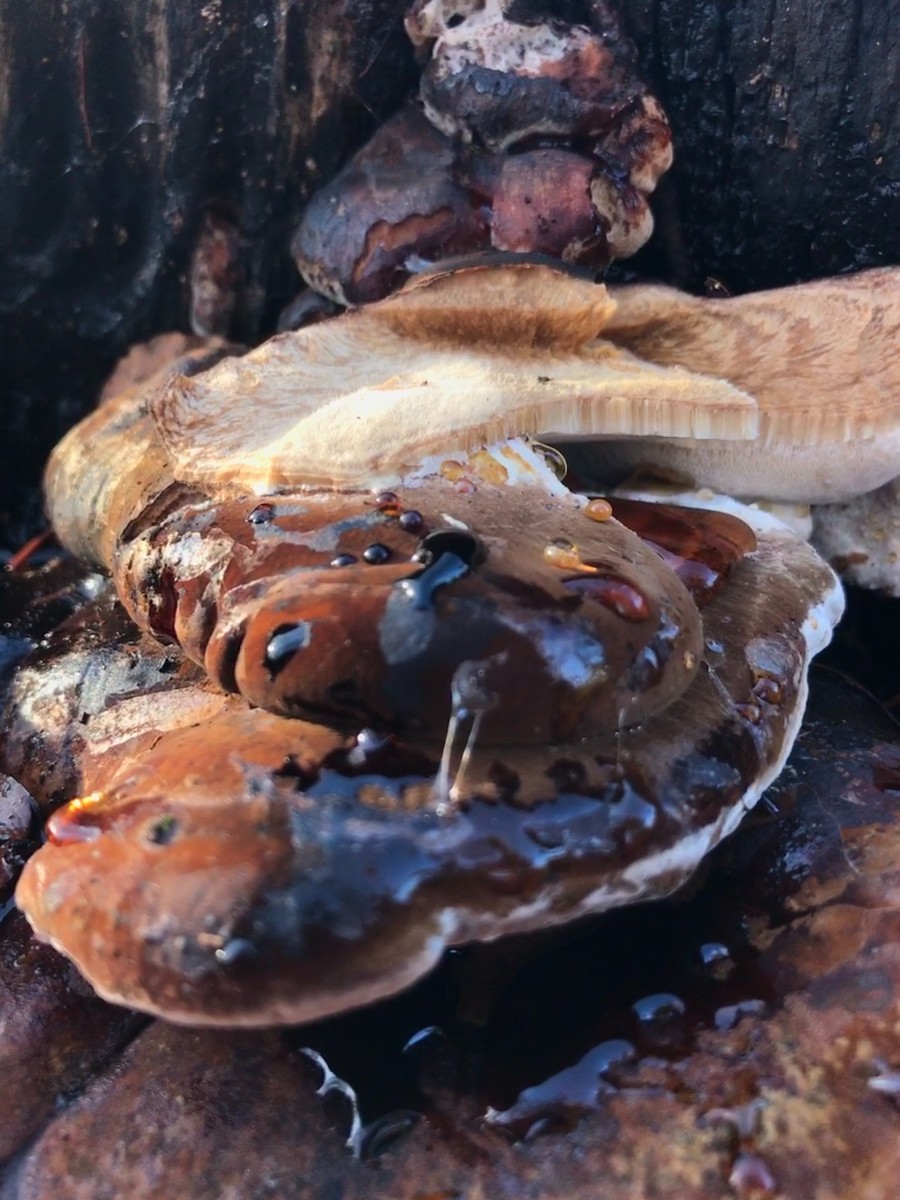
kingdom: Fungi
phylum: Basidiomycota
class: Agaricomycetes
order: Polyporales
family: Ischnodermataceae
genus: Ischnoderma
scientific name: Ischnoderma resinosum
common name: løv-tjæreporesvamp
